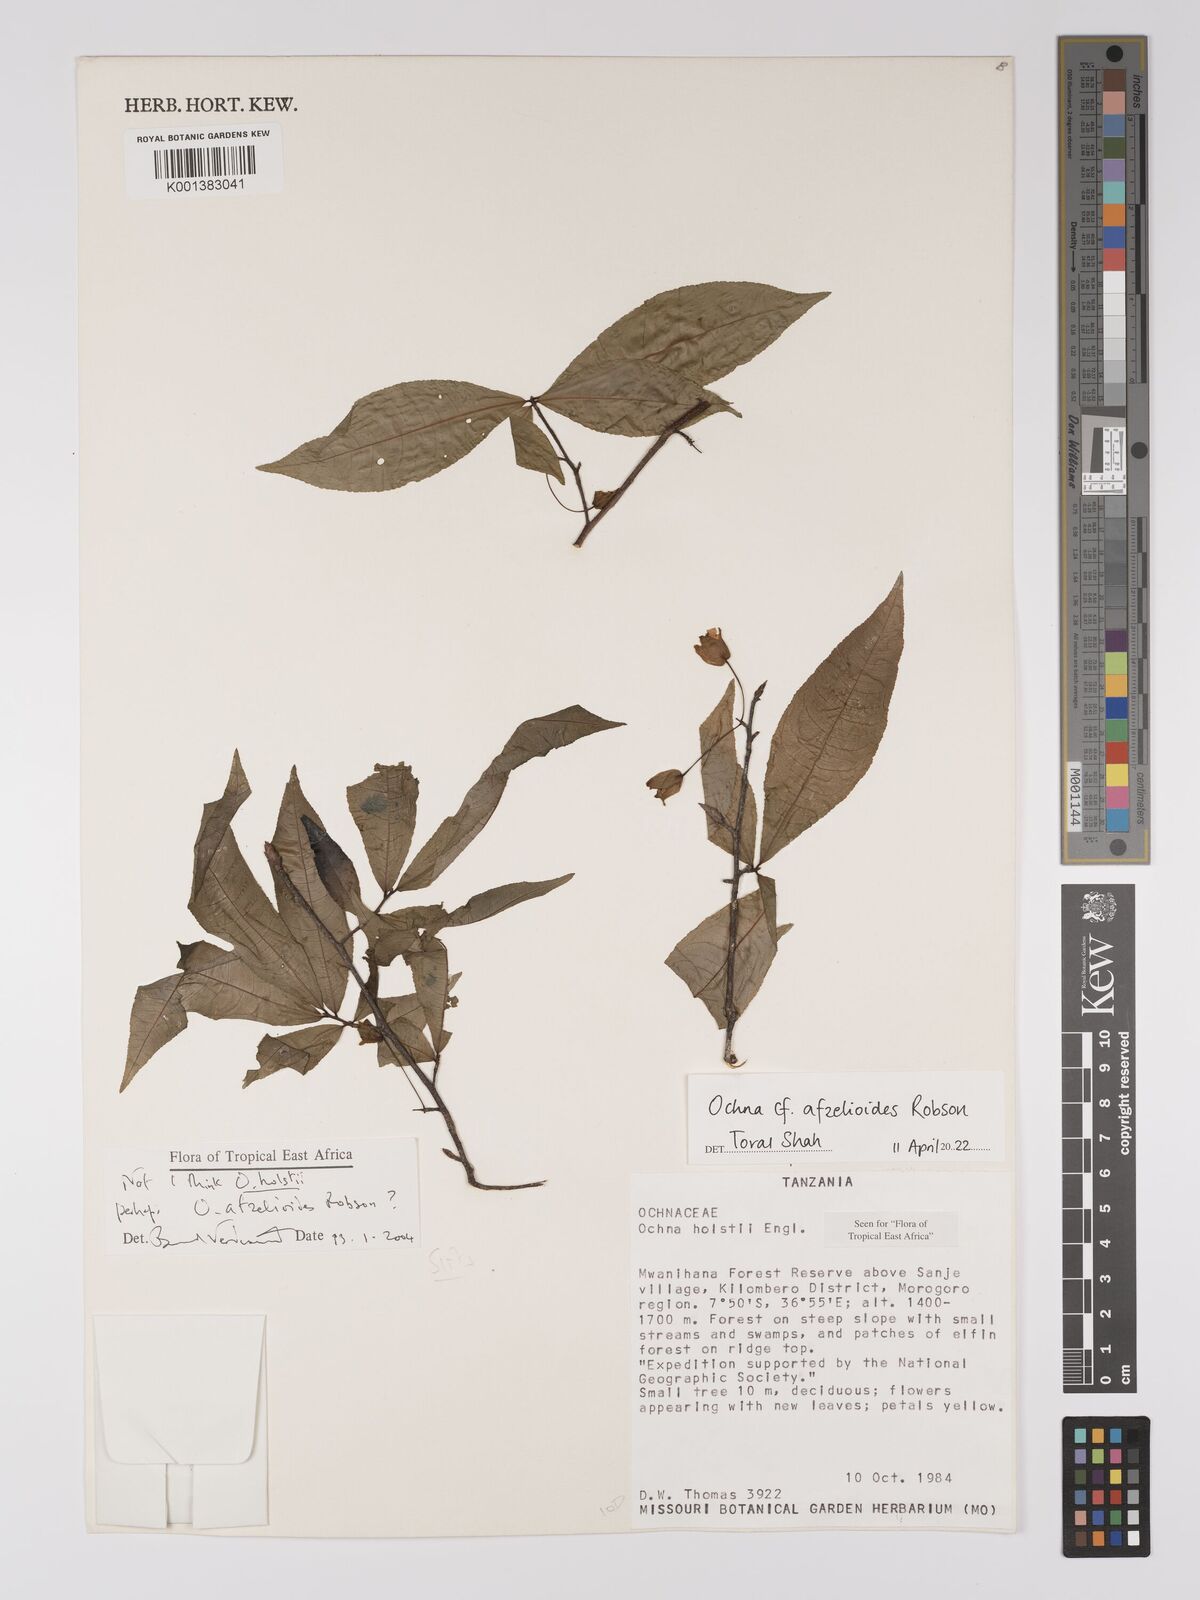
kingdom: Plantae
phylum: Tracheophyta
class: Magnoliopsida
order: Malpighiales
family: Ochnaceae
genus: Ochna
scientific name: Ochna afzelioides
